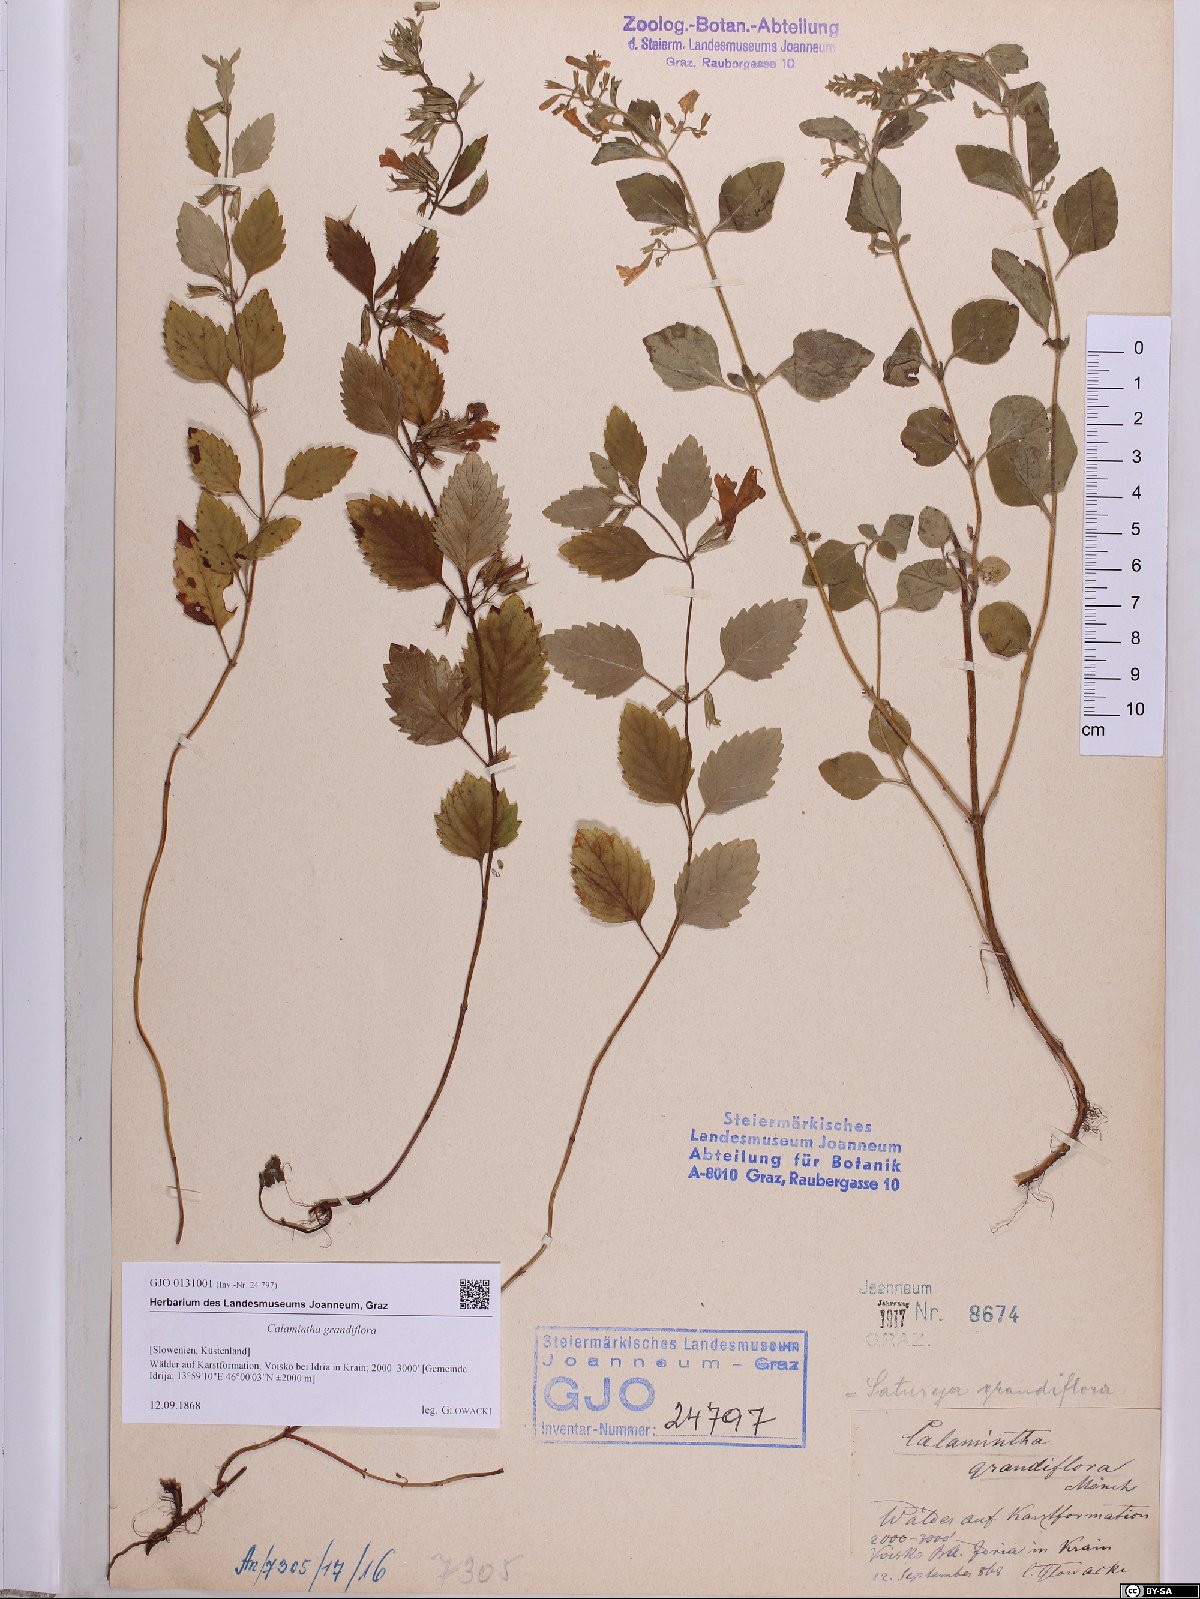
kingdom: Plantae
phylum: Tracheophyta
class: Magnoliopsida
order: Lamiales
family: Lamiaceae
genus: Clinopodium
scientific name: Clinopodium grandiflorum
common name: Greater calamint
